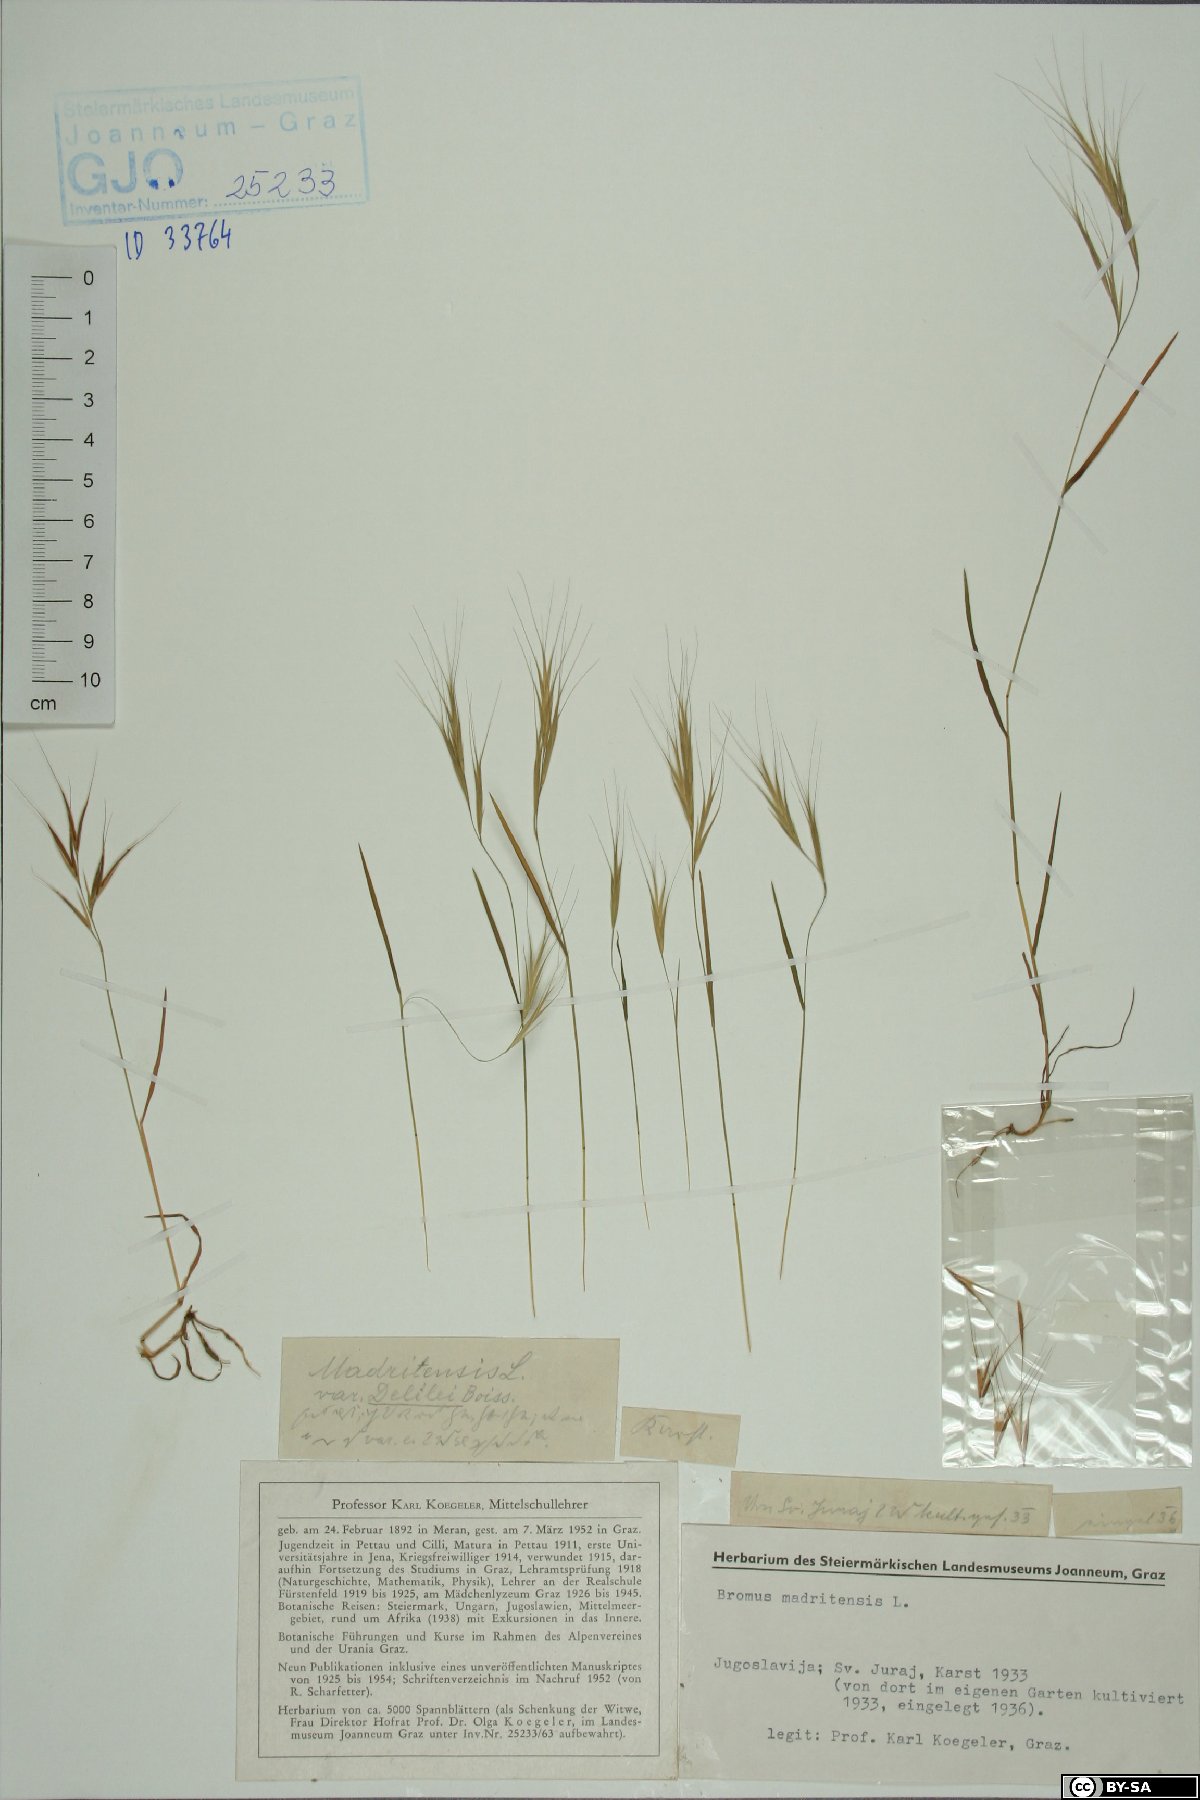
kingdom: Plantae
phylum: Tracheophyta
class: Liliopsida
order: Poales
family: Poaceae
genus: Bromus
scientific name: Bromus madritensis
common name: Compact brome
